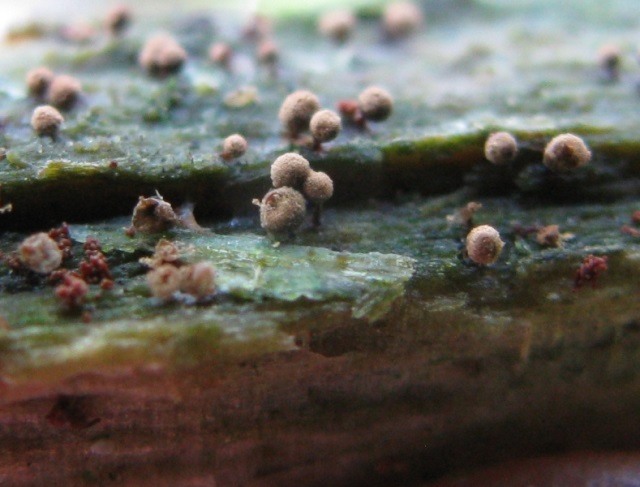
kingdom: Protozoa
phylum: Mycetozoa
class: Myxomycetes
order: Cribrariales
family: Cribrariaceae
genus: Cribraria
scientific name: Cribraria aurantiaca
